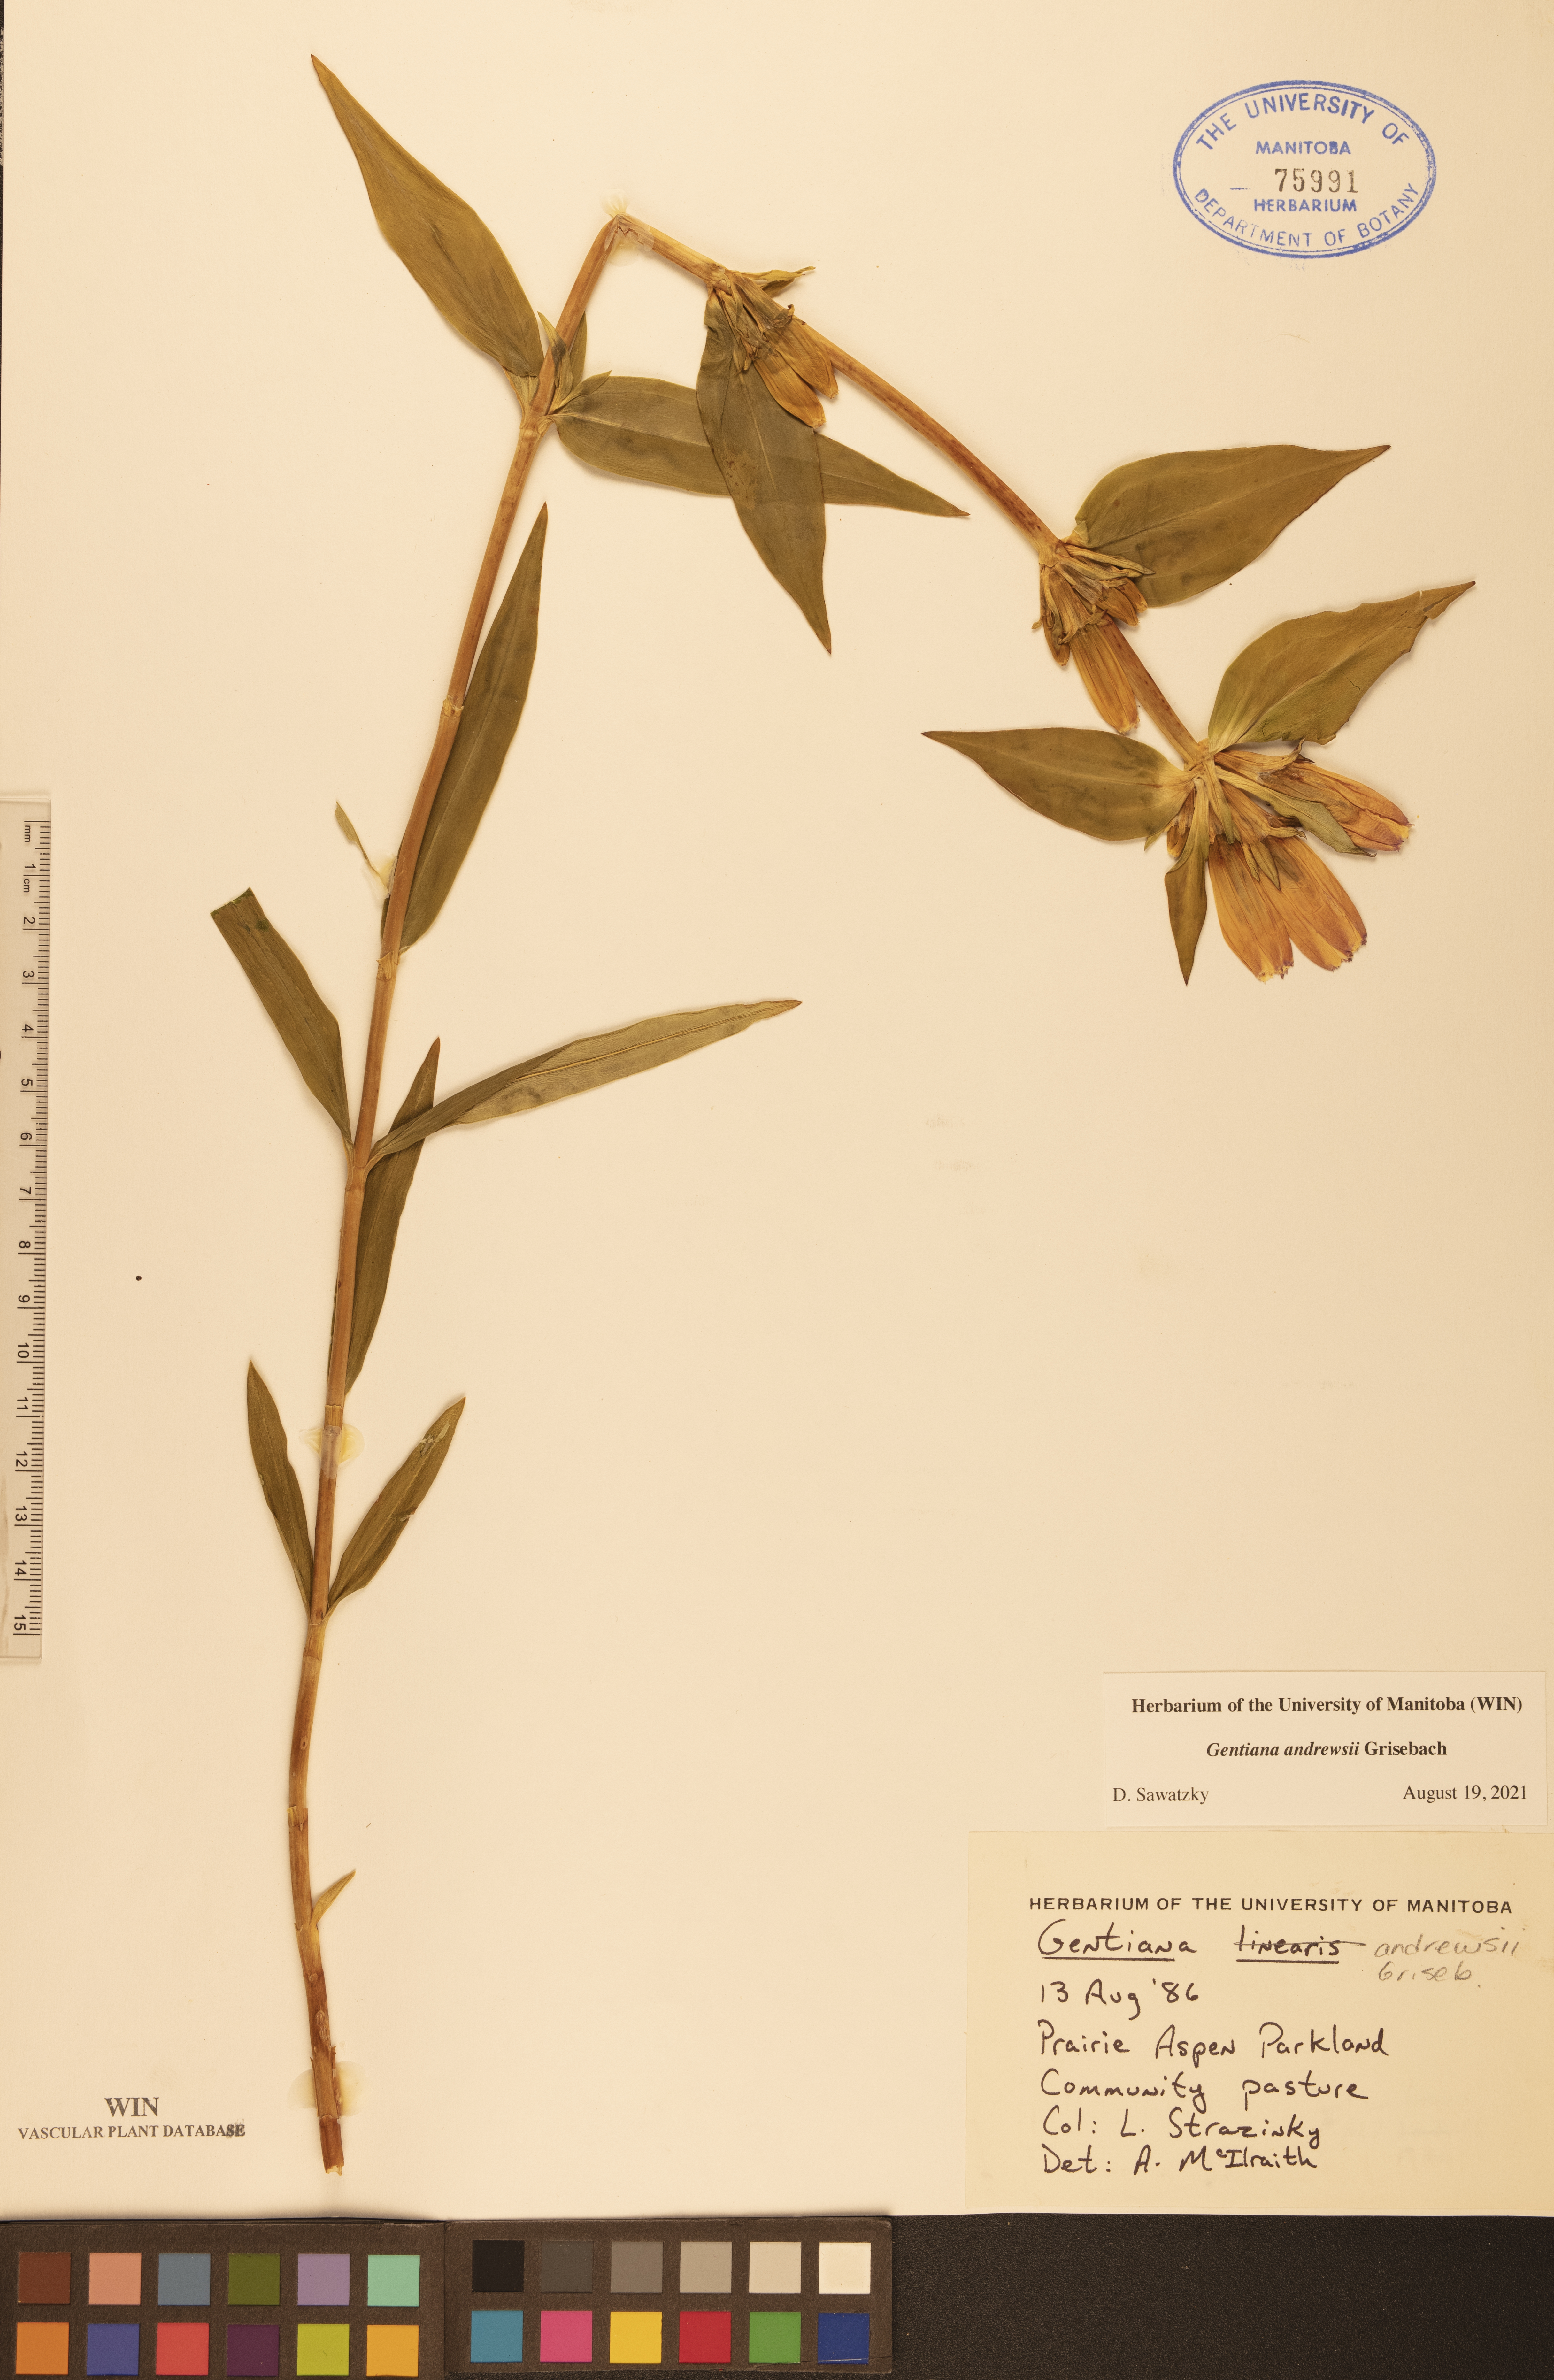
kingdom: Plantae
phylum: Tracheophyta
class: Magnoliopsida
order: Gentianales
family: Gentianaceae
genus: Gentiana
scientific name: Gentiana andrewsii
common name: Bottle gentian
